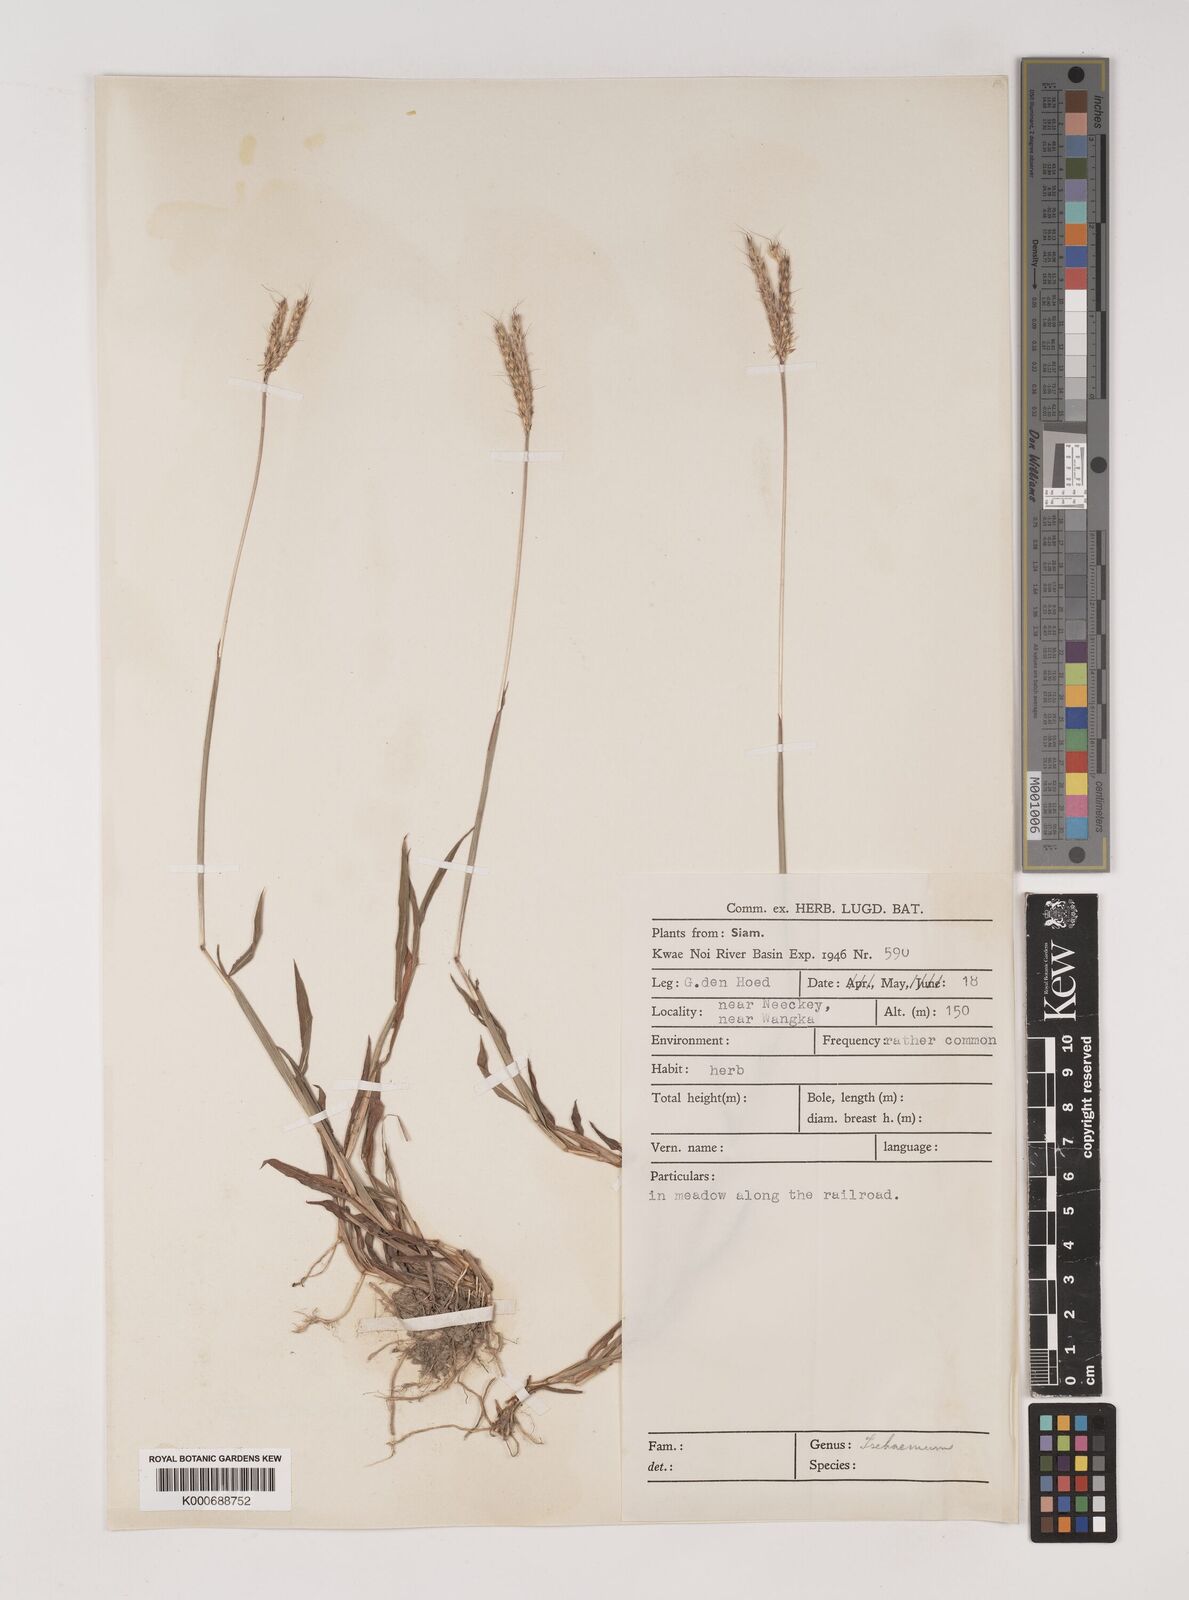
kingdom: Plantae
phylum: Tracheophyta
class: Liliopsida
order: Poales
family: Poaceae
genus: Ischaemum
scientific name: Ischaemum timorense
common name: Stalkleaf murainagrass
